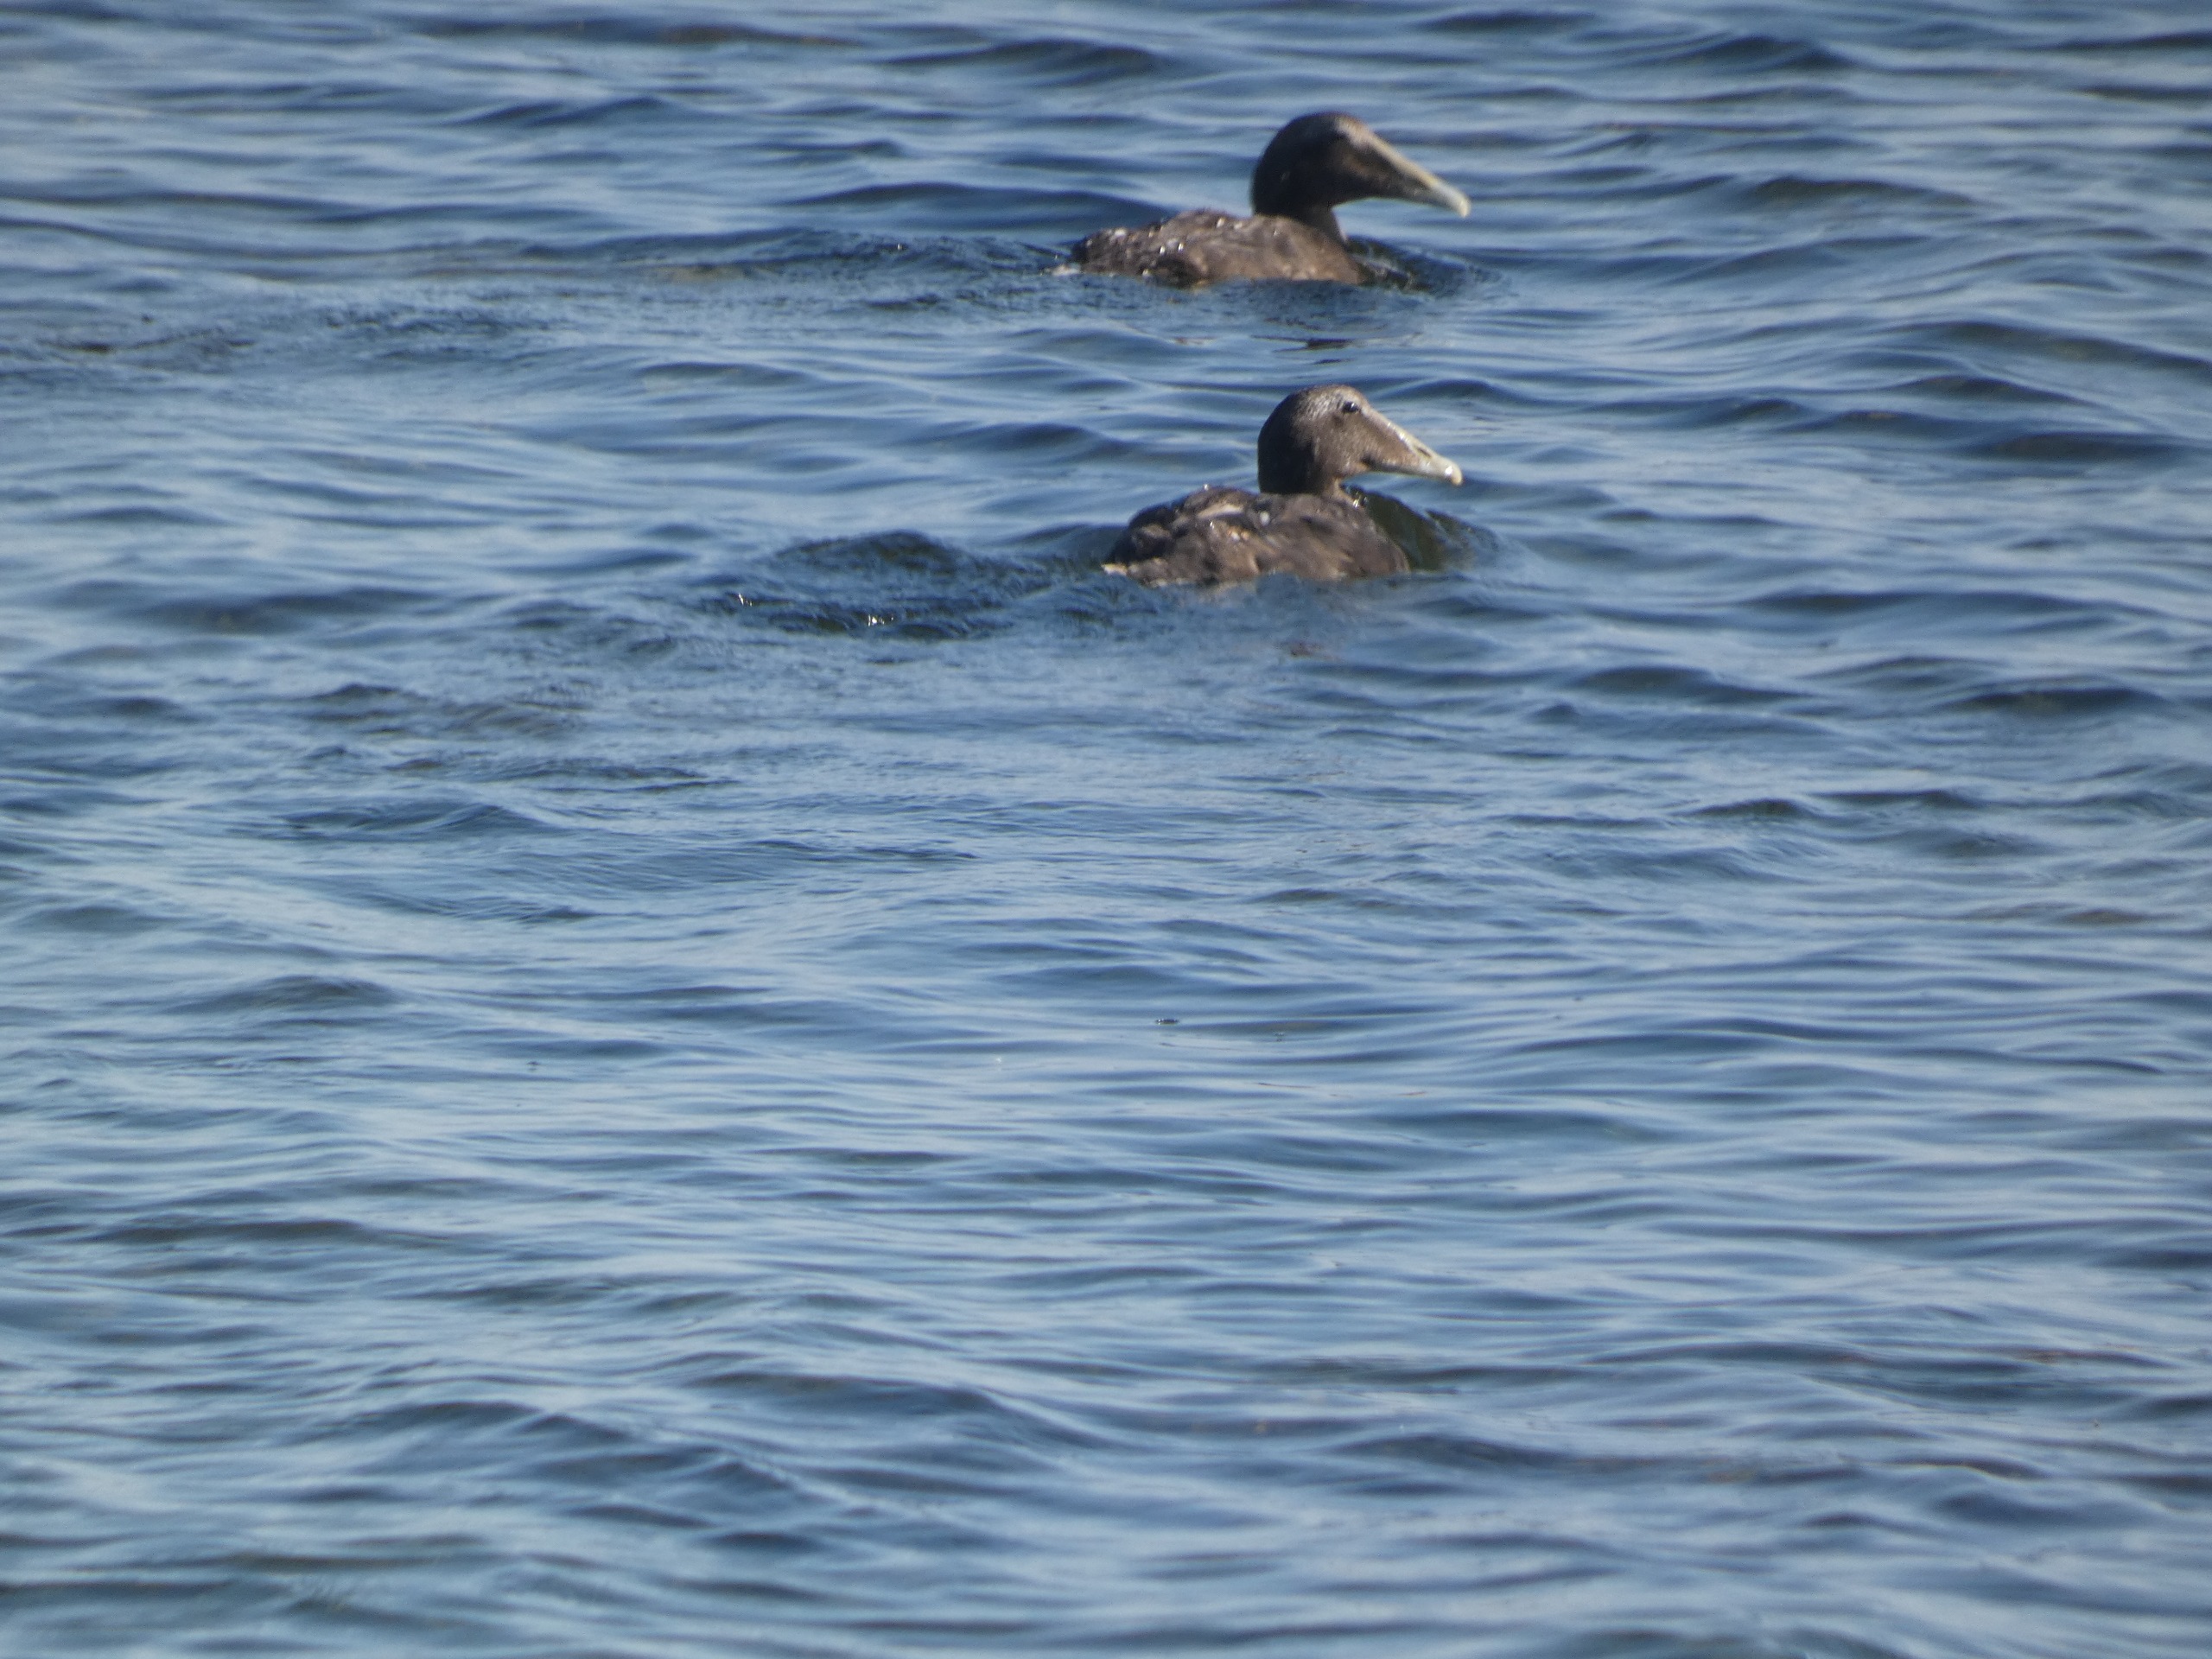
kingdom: Animalia
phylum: Chordata
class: Aves
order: Anseriformes
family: Anatidae
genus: Somateria
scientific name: Somateria mollissima
